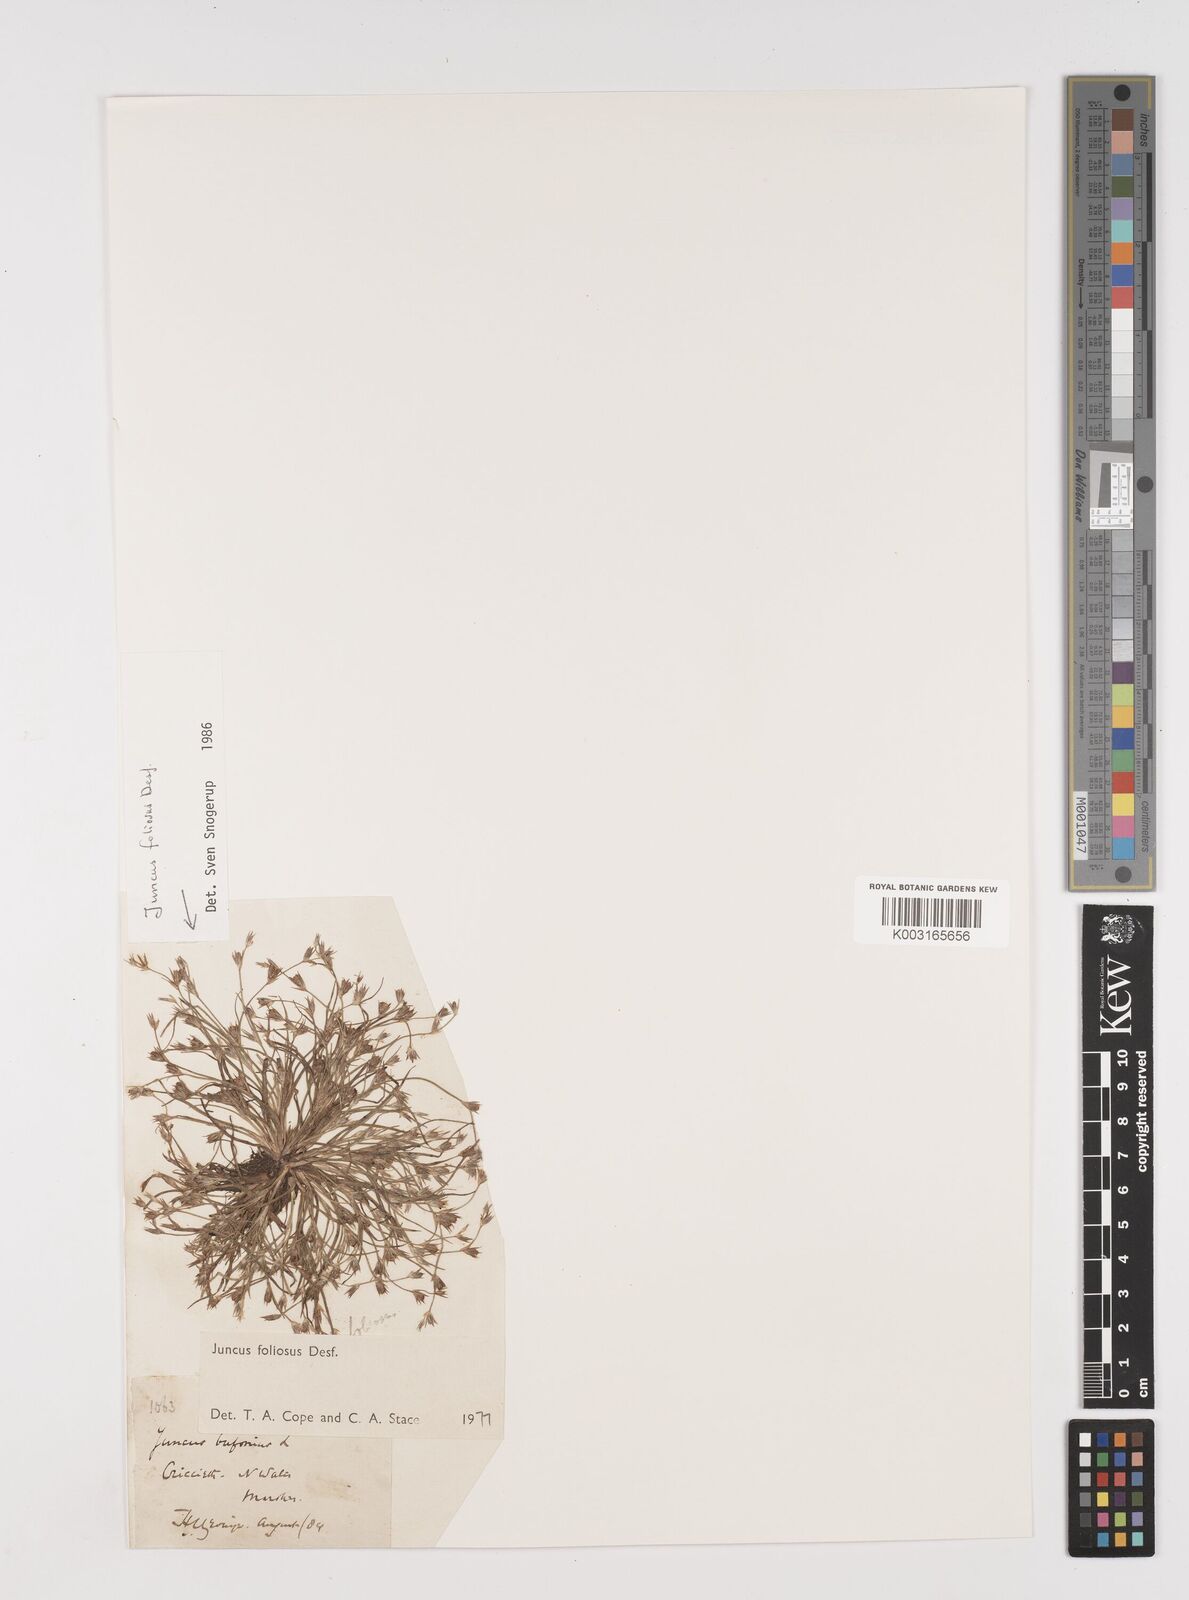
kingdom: Plantae
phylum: Tracheophyta
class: Liliopsida
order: Poales
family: Juncaceae
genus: Juncus
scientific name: Juncus foliosus
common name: Leafy rush
